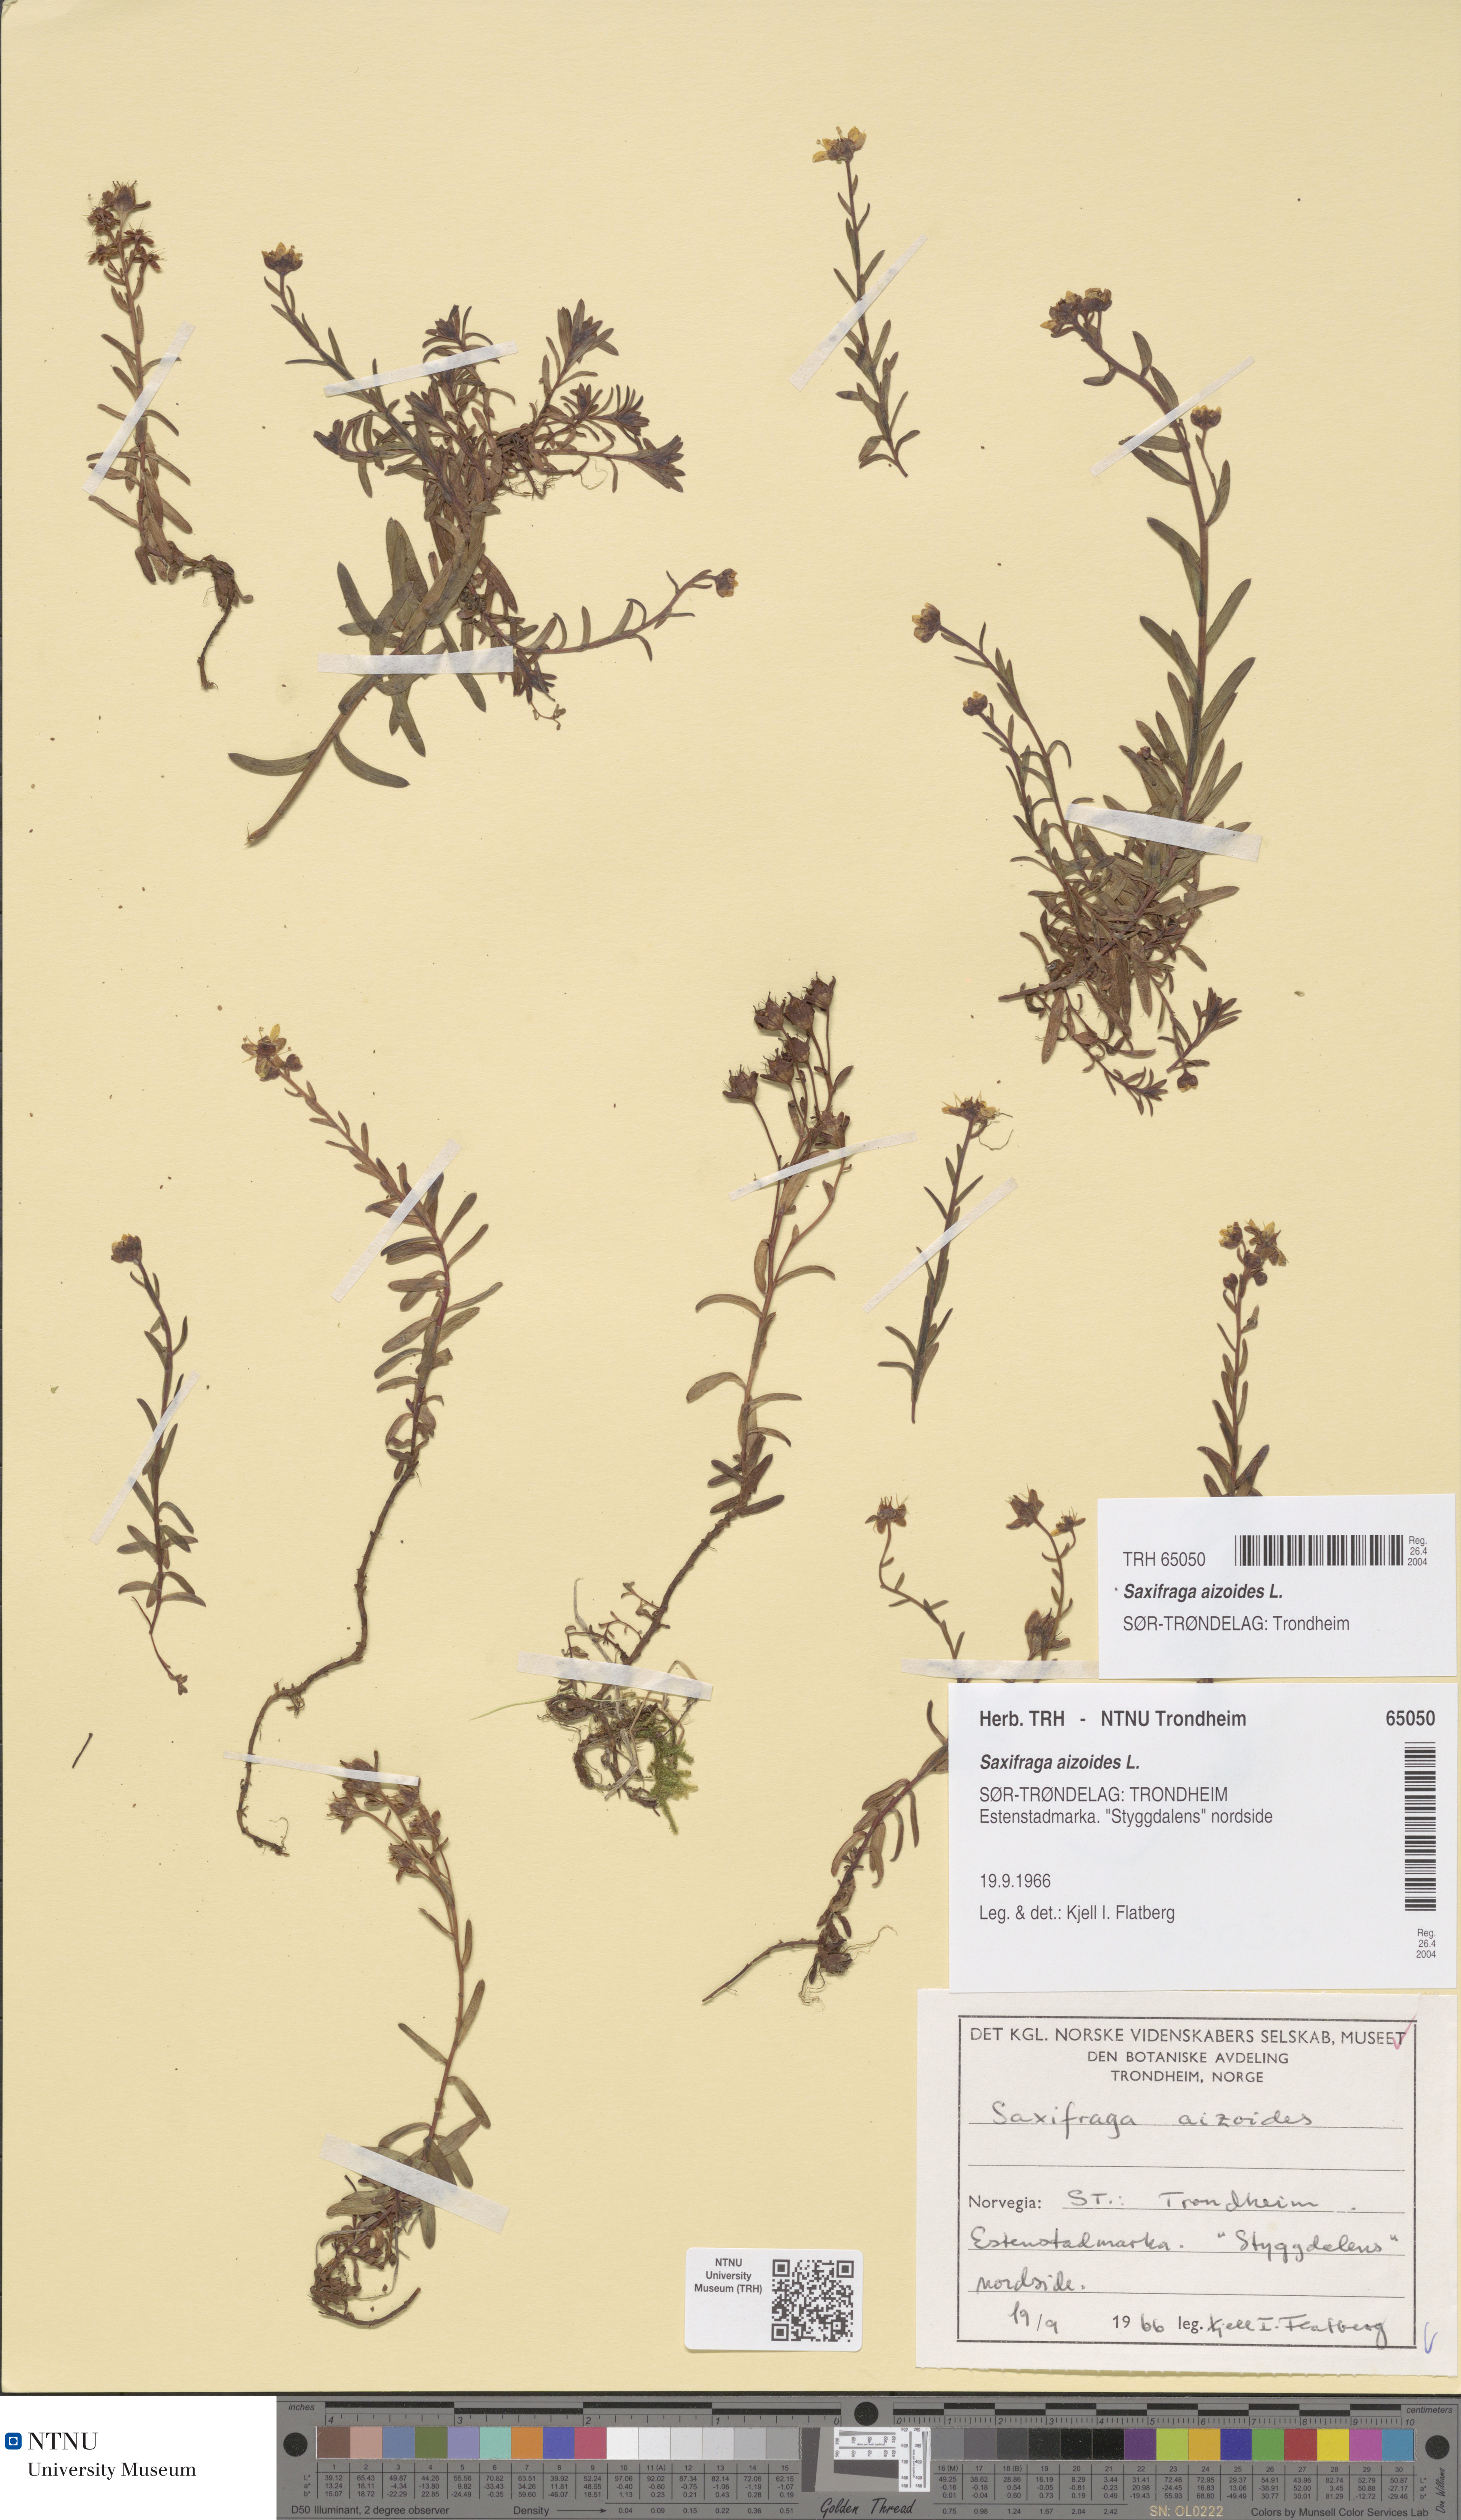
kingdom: Plantae
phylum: Tracheophyta
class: Magnoliopsida
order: Saxifragales
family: Saxifragaceae
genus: Saxifraga
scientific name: Saxifraga aizoides
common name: Yellow mountain saxifrage
